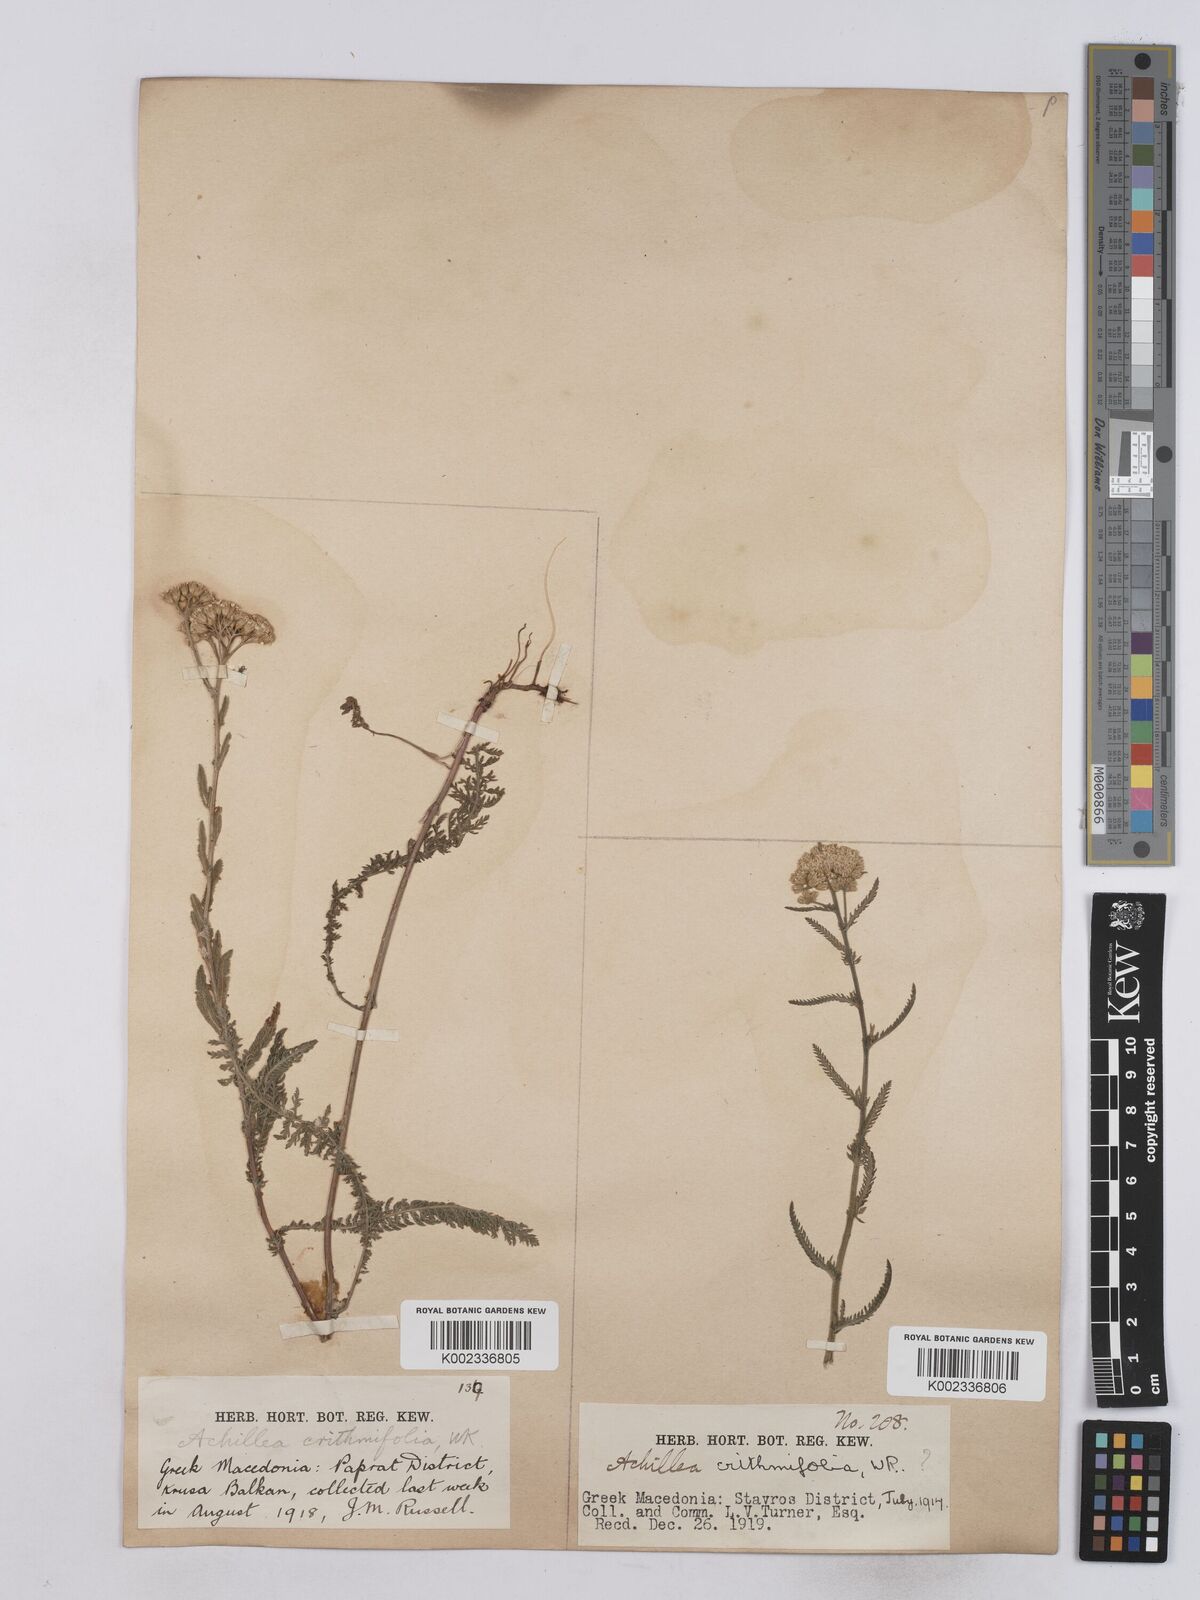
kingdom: Plantae
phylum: Tracheophyta
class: Magnoliopsida
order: Asterales
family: Asteraceae
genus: Achillea
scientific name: Achillea crithmifolia
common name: Yarrow
